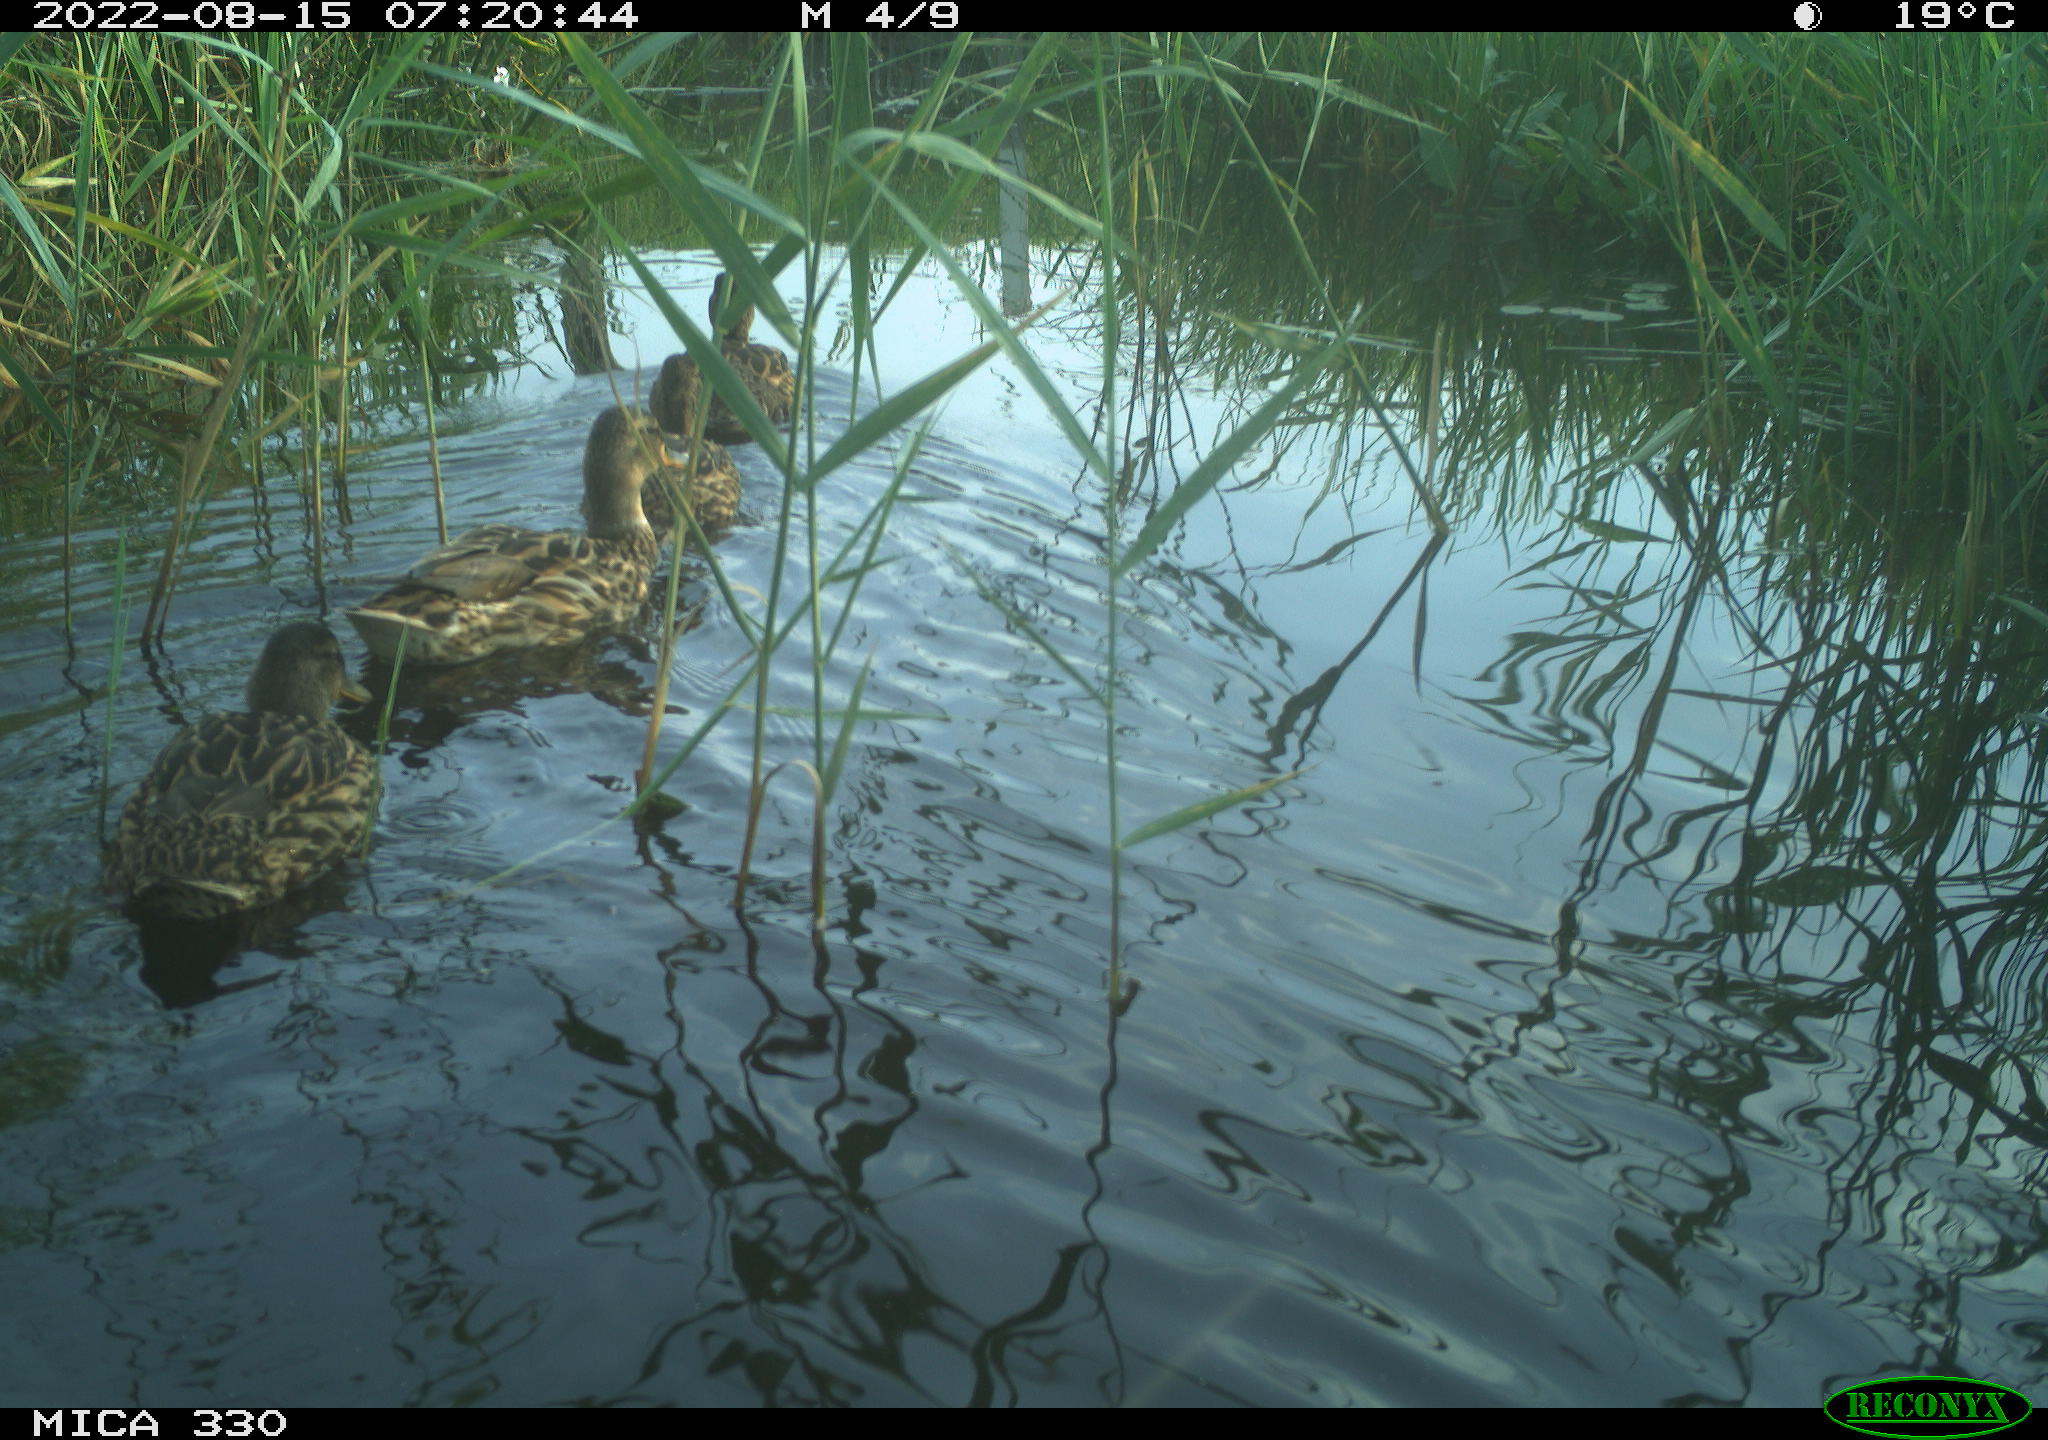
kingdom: Animalia
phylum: Chordata
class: Aves
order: Anseriformes
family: Anatidae
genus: Anas
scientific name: Anas platyrhynchos
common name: Mallard
